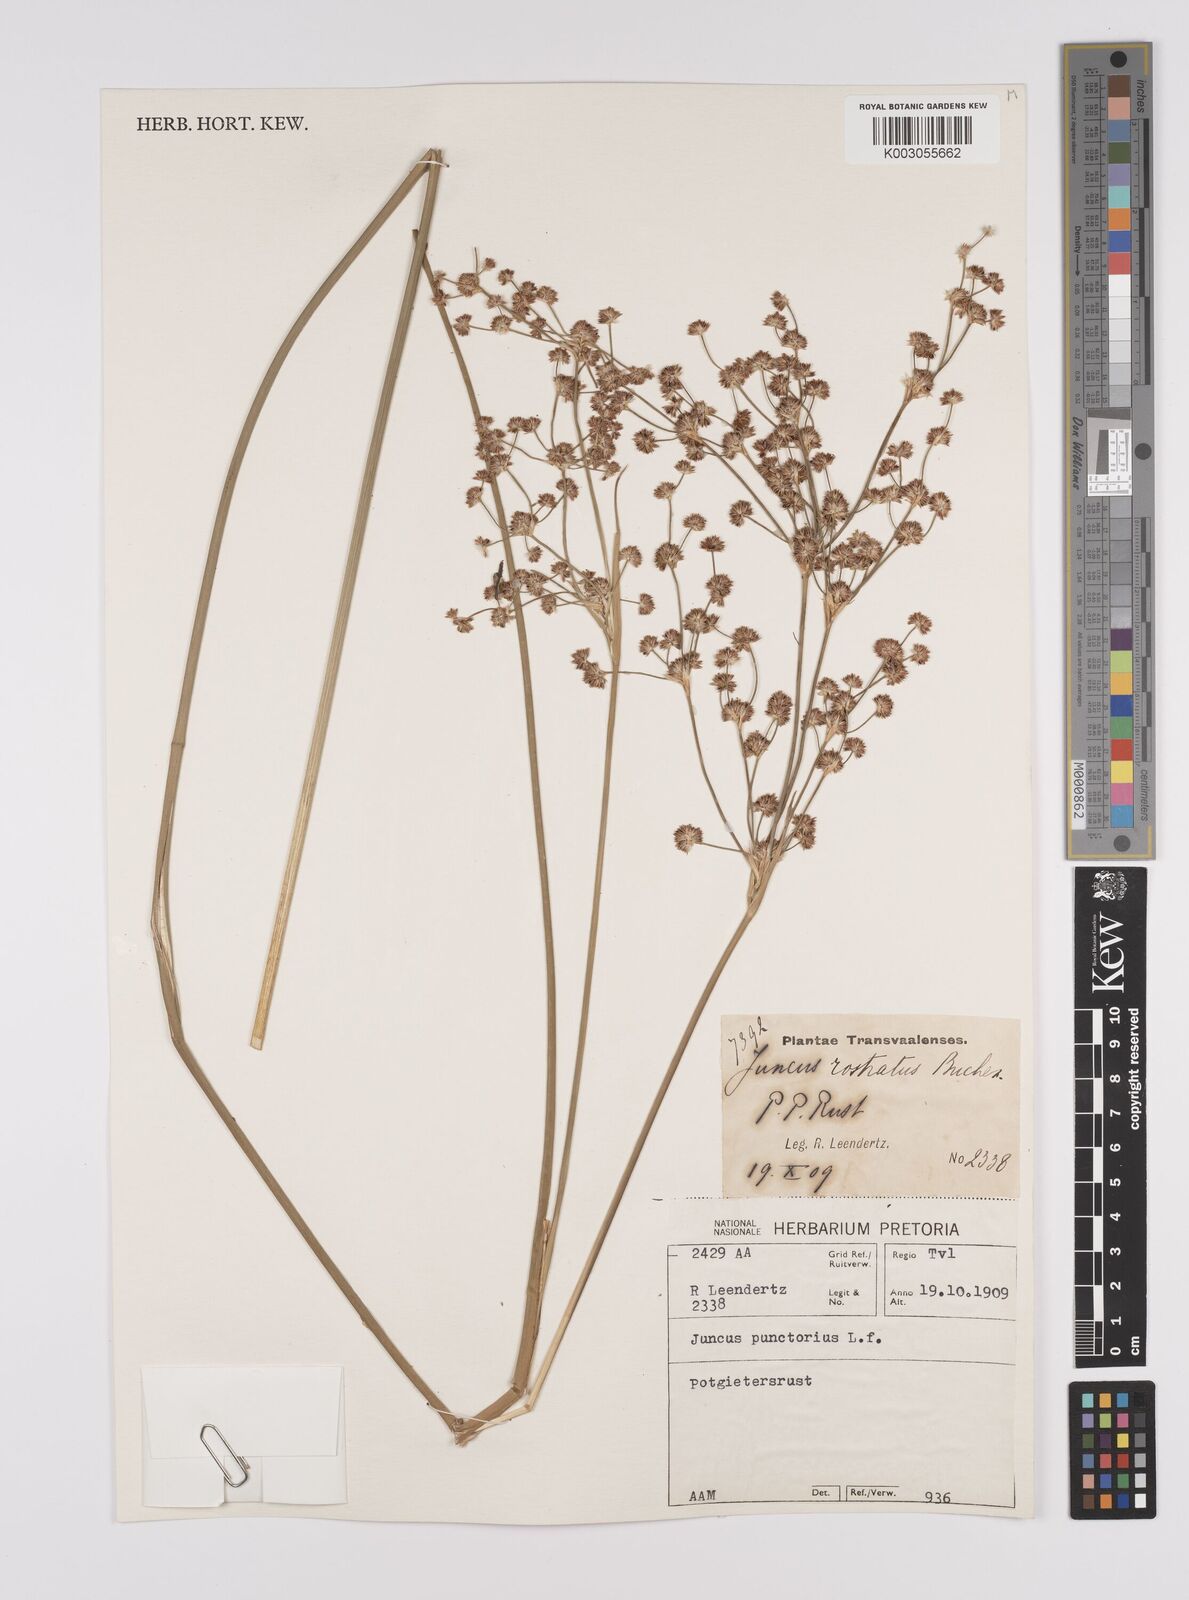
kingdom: Plantae
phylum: Tracheophyta
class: Liliopsida
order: Poales
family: Juncaceae
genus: Juncus
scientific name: Juncus punctorius
